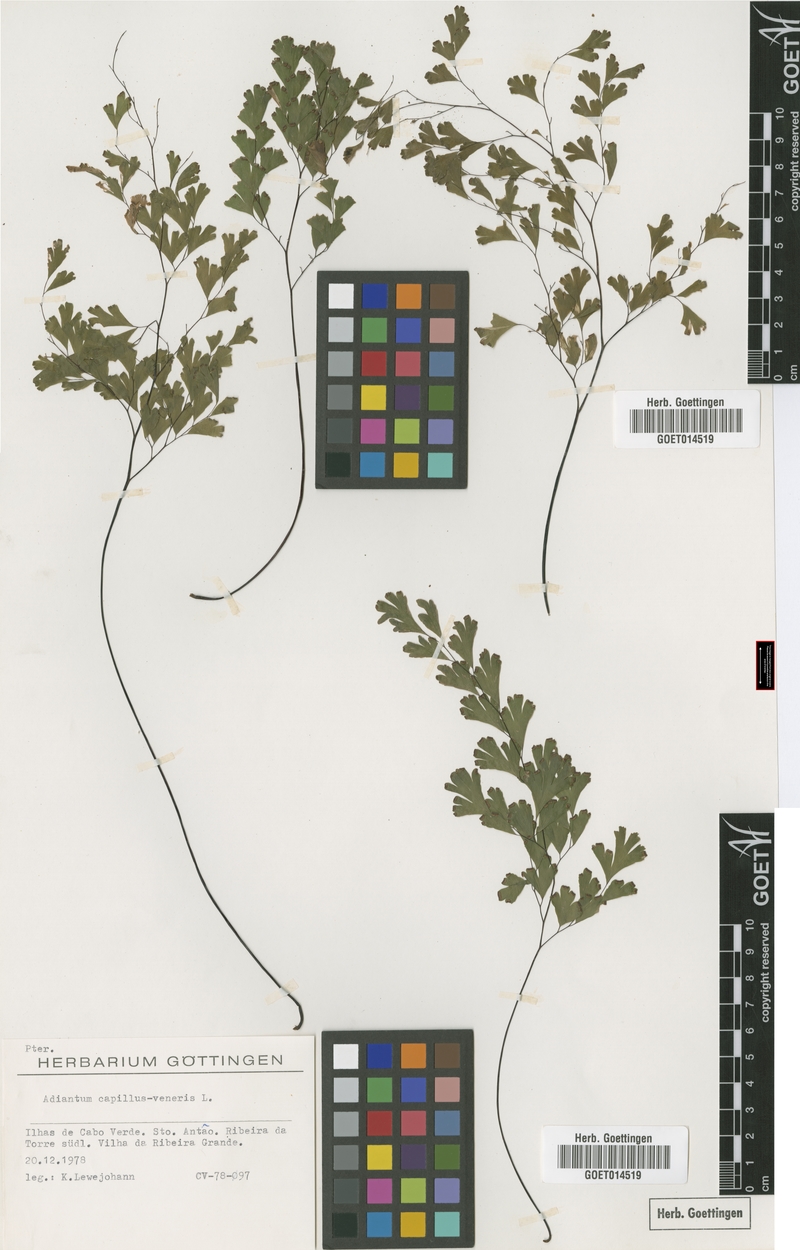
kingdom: Plantae
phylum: Tracheophyta
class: Polypodiopsida
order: Polypodiales
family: Pteridaceae
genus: Adiantum
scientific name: Adiantum capillus-veneris
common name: Maidenhair fern
